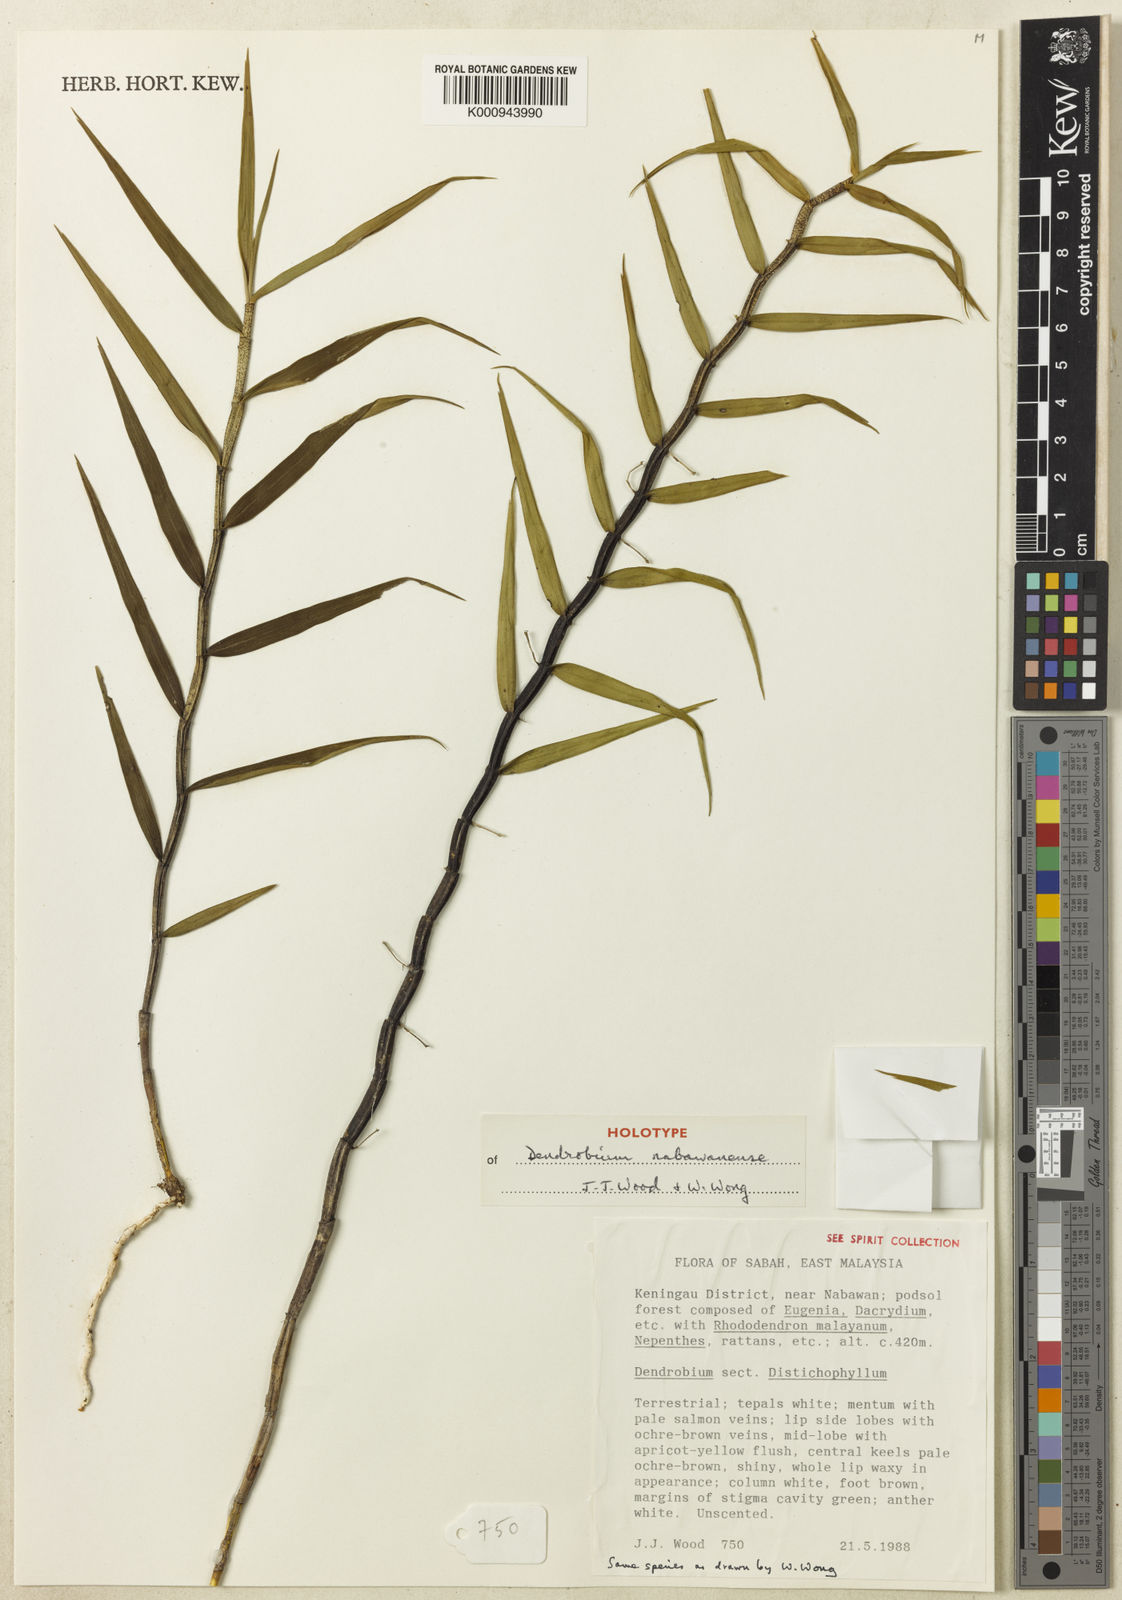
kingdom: Plantae
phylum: Tracheophyta
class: Liliopsida
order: Asparagales
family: Orchidaceae
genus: Dendrobium
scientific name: Dendrobium nabawanense
